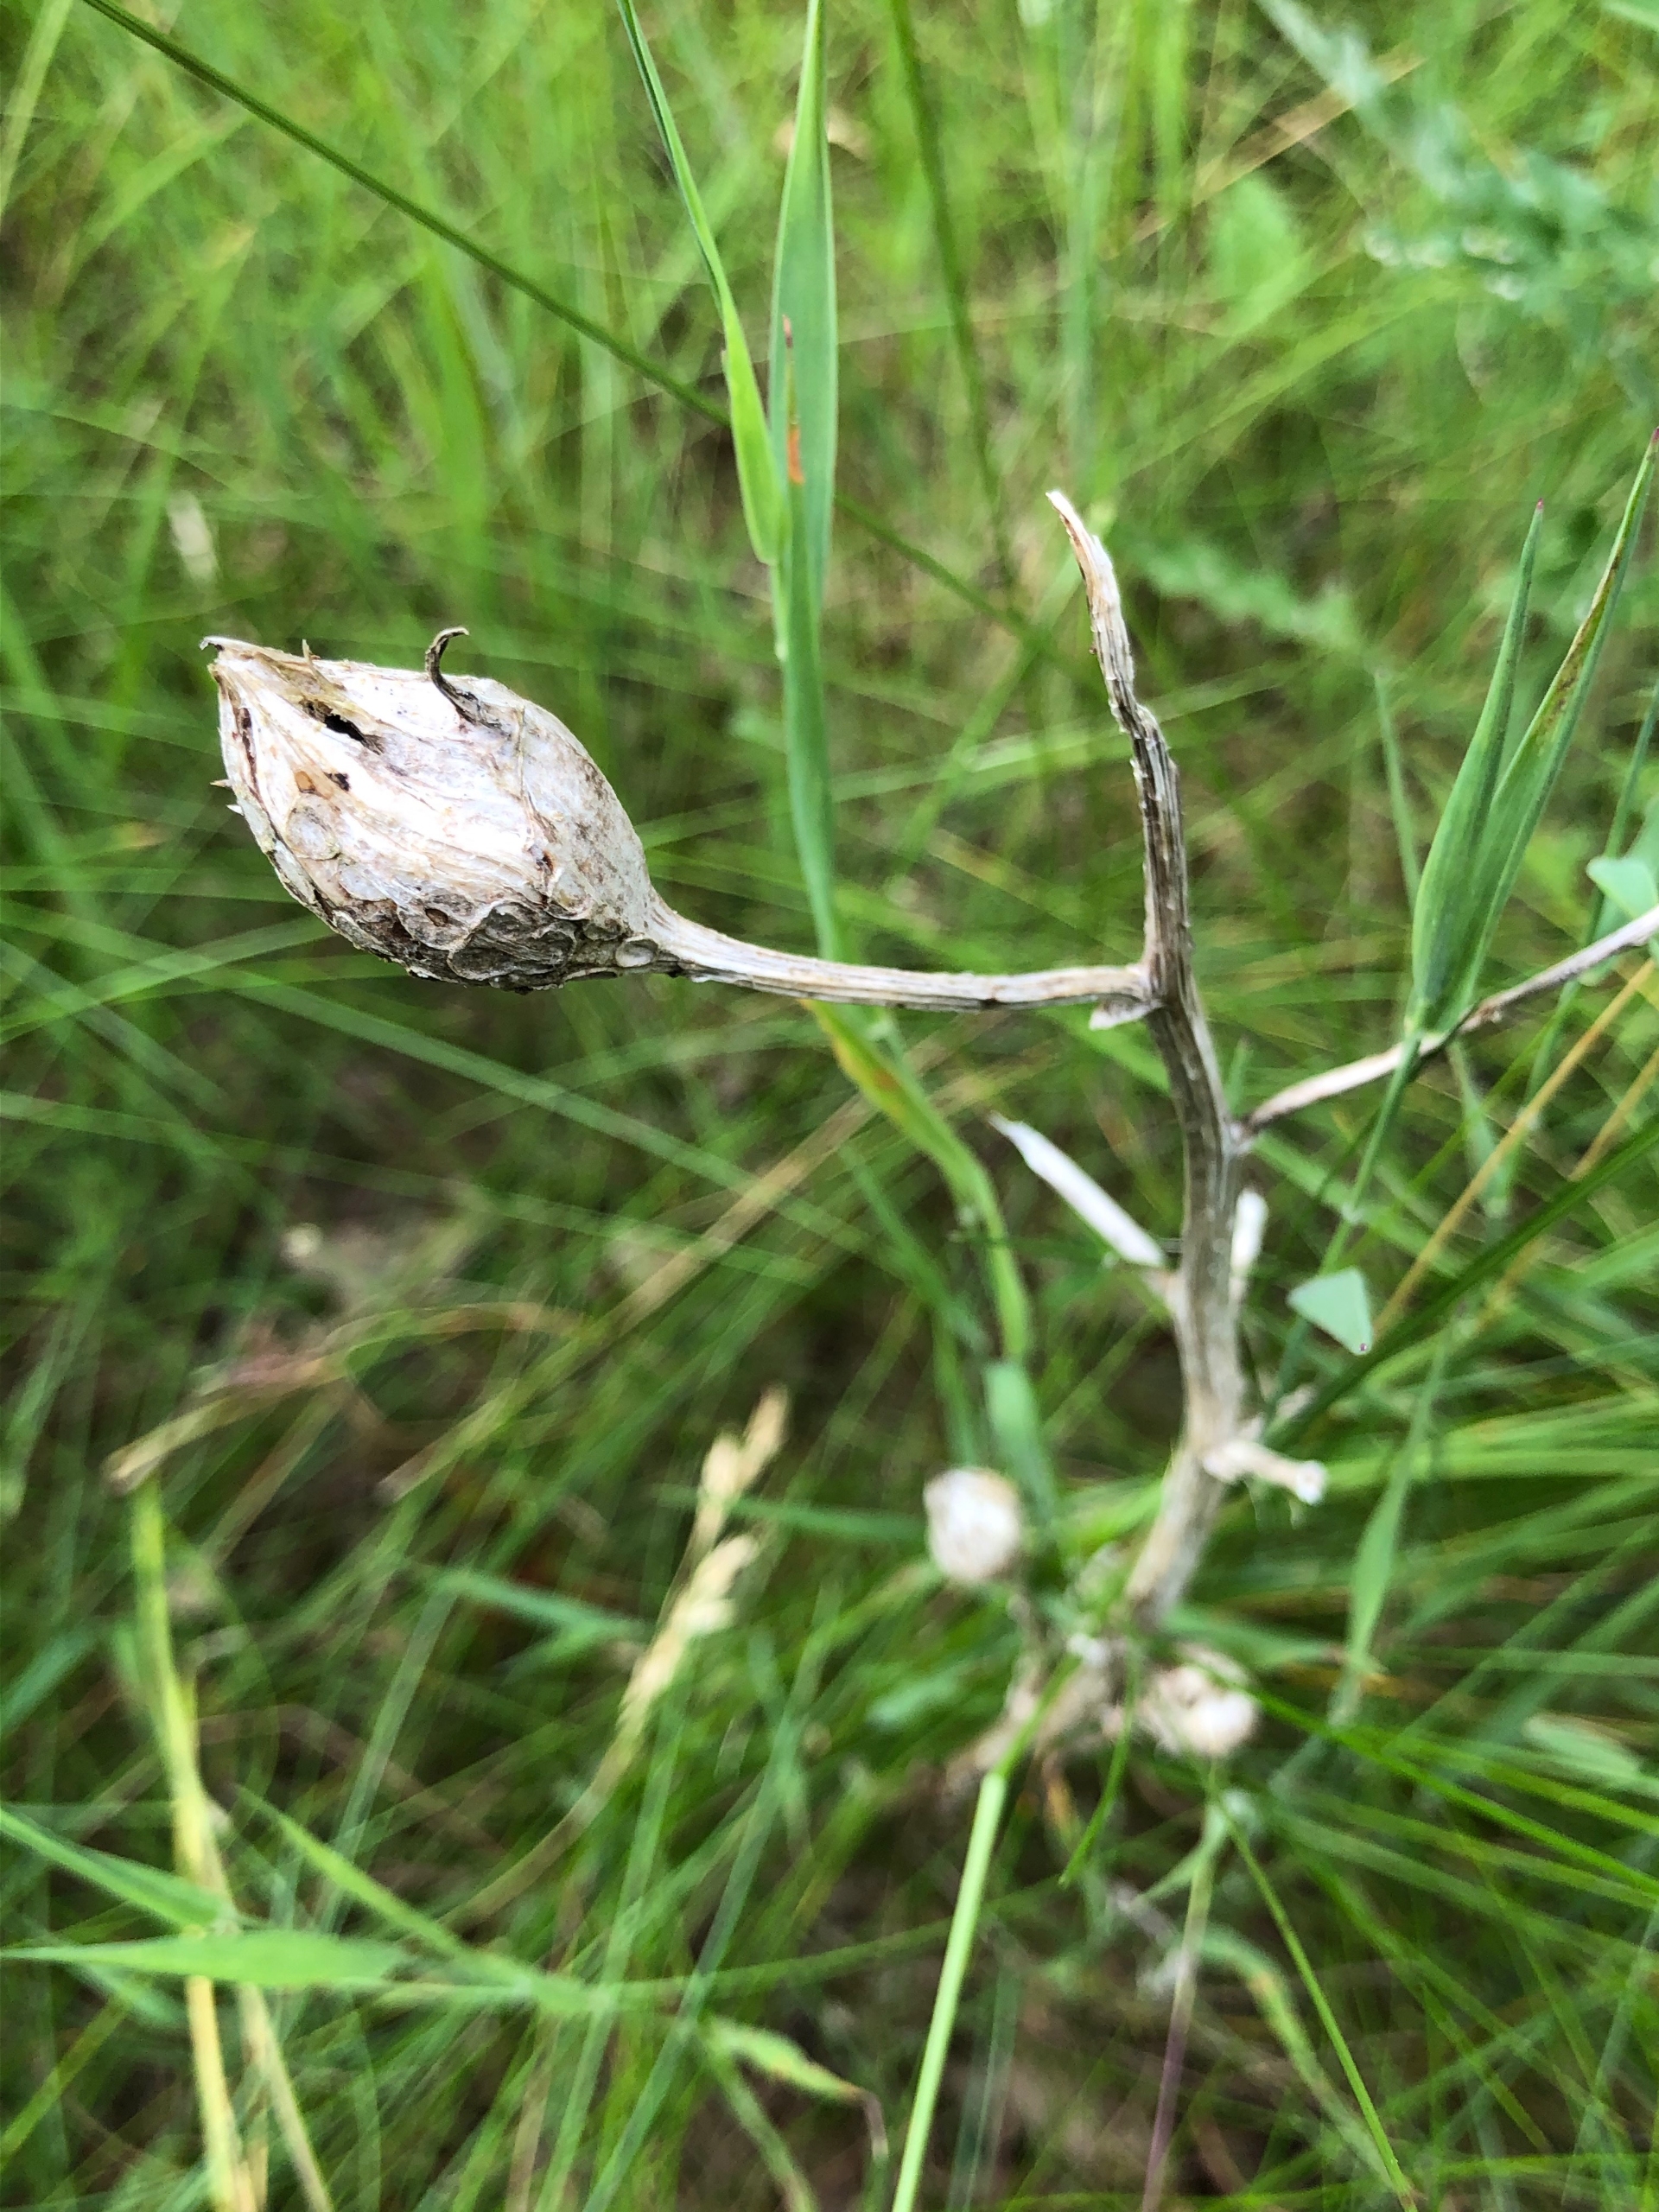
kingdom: Animalia
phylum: Arthropoda
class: Insecta
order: Diptera
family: Tephritidae
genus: Urophora
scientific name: Urophora cardui
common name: Tidselbåndflue
